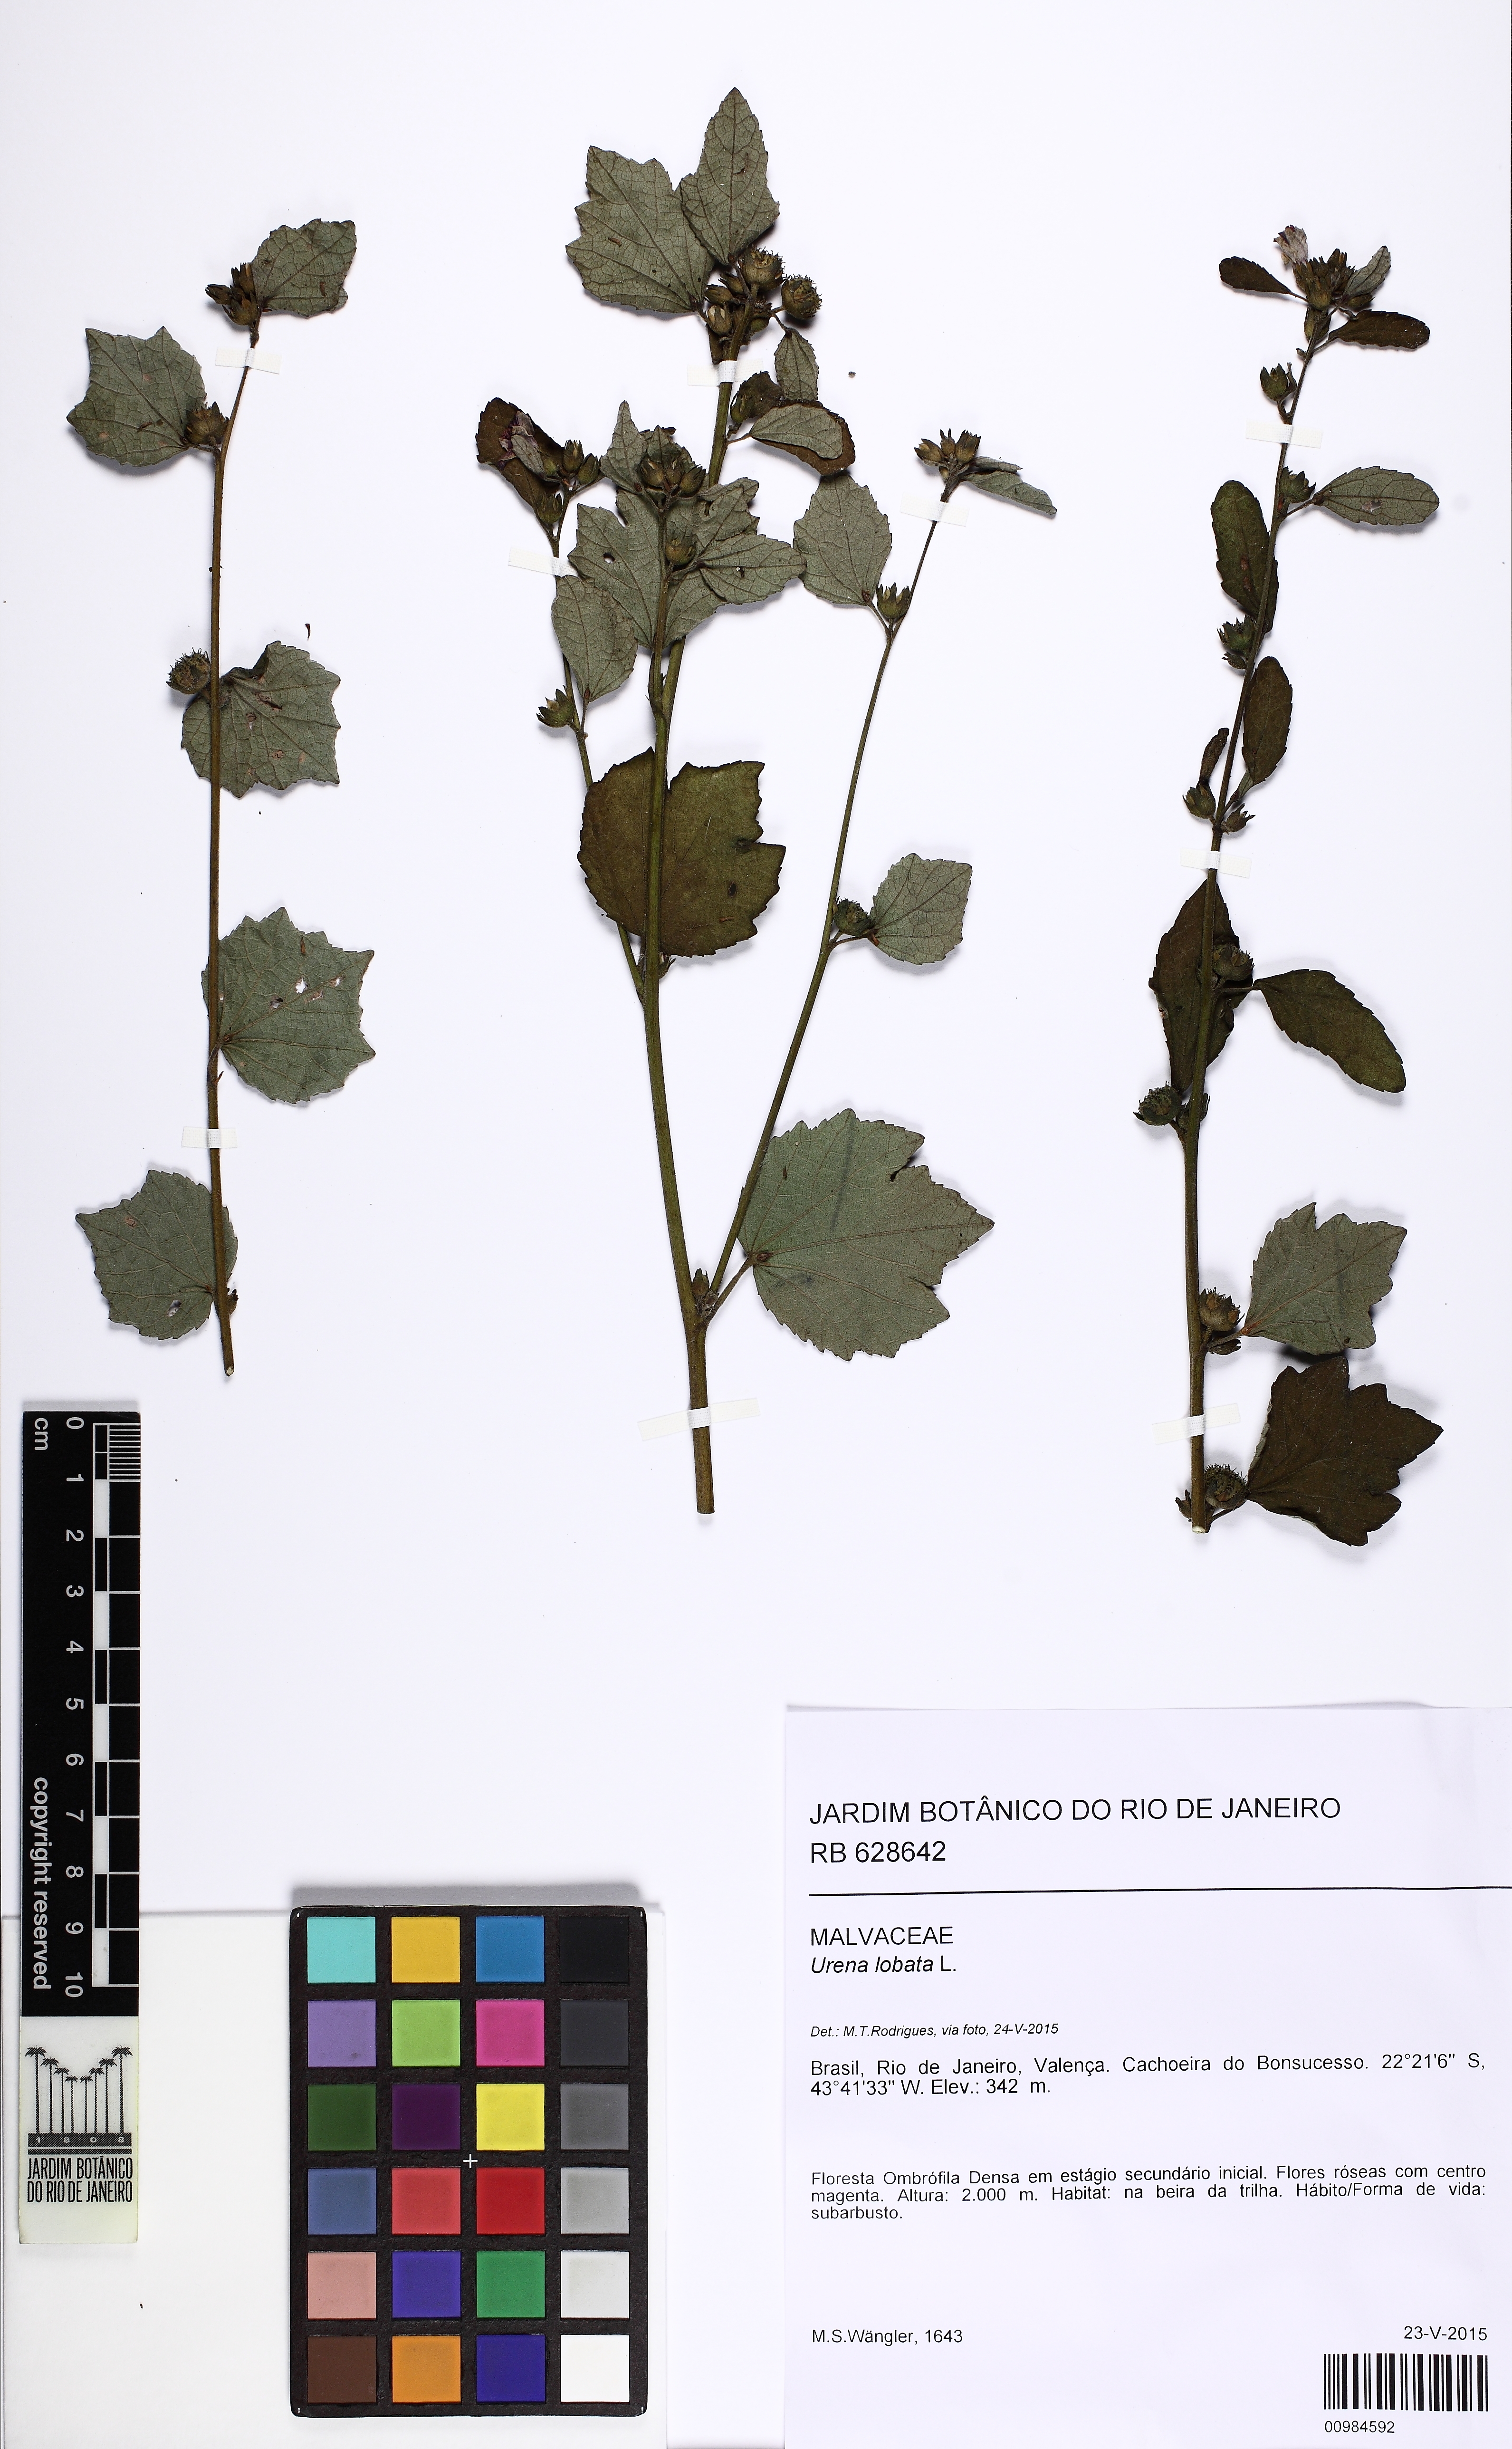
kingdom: Plantae
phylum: Tracheophyta
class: Magnoliopsida
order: Malvales
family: Malvaceae
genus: Urena
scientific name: Urena lobata
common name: Caesarweed
